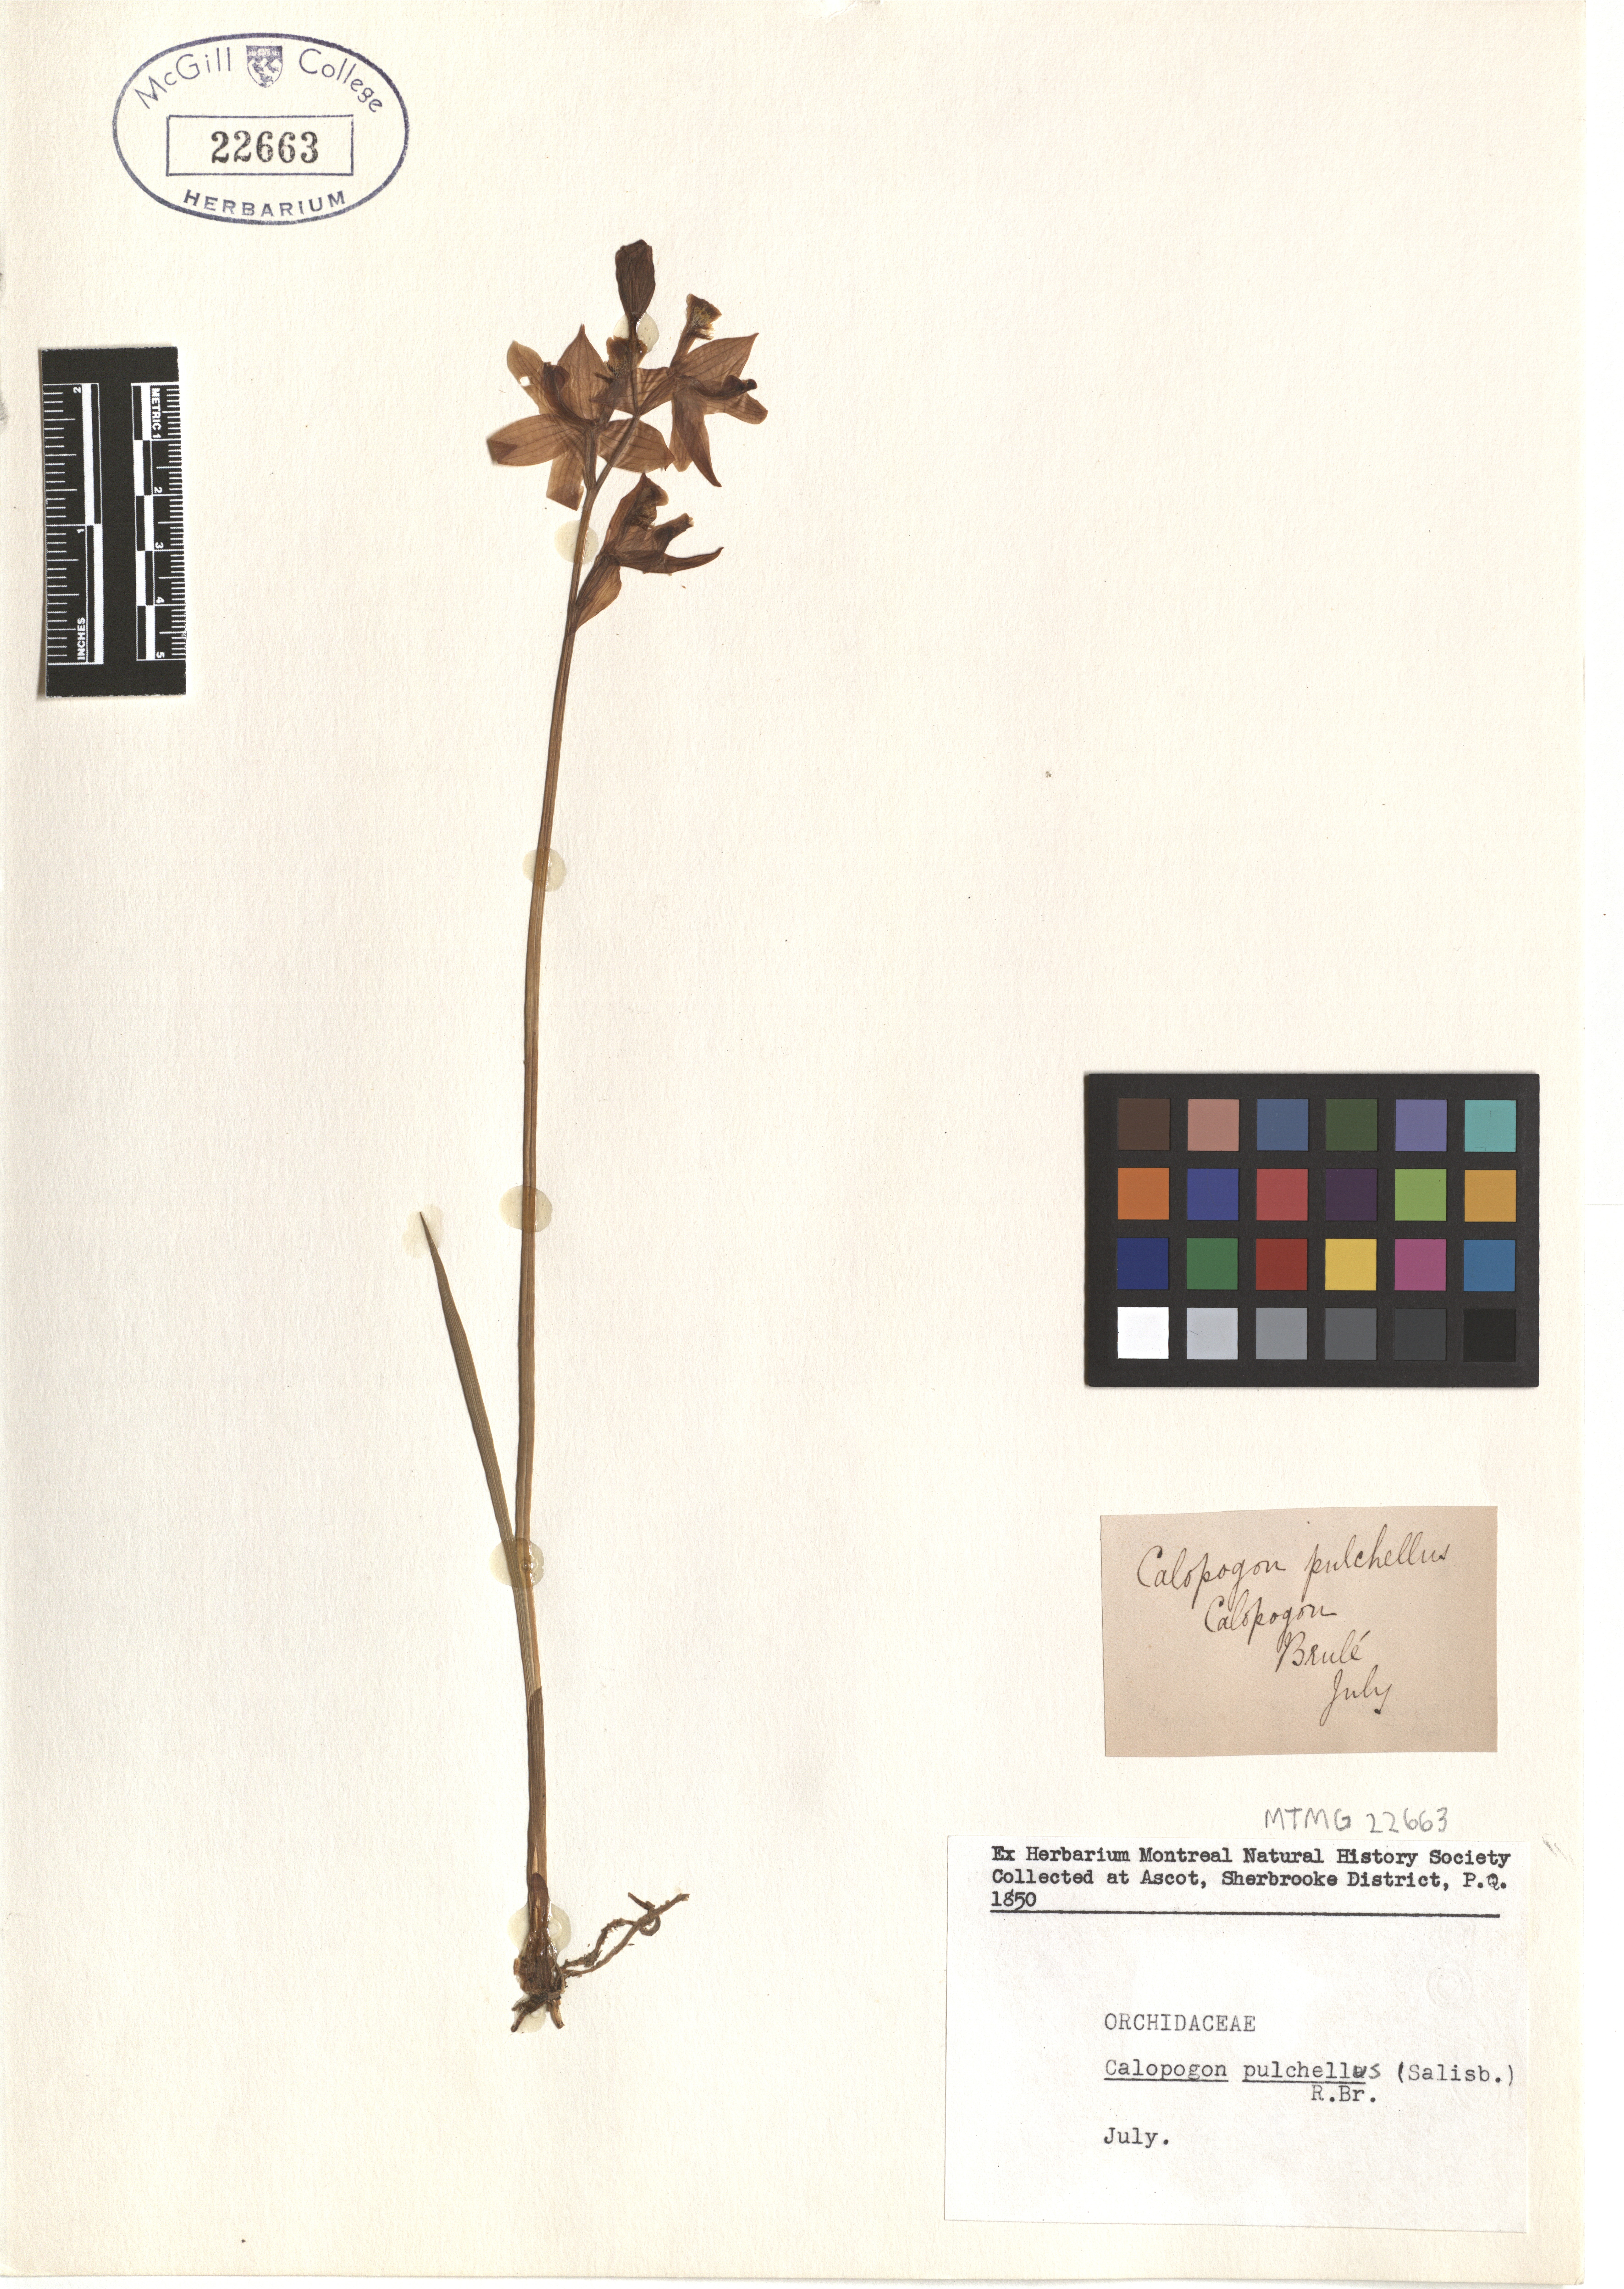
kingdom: Plantae
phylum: Tracheophyta
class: Liliopsida
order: Asparagales
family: Orchidaceae
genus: Calopogon
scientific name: Calopogon tuberosus
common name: Grass-pink
